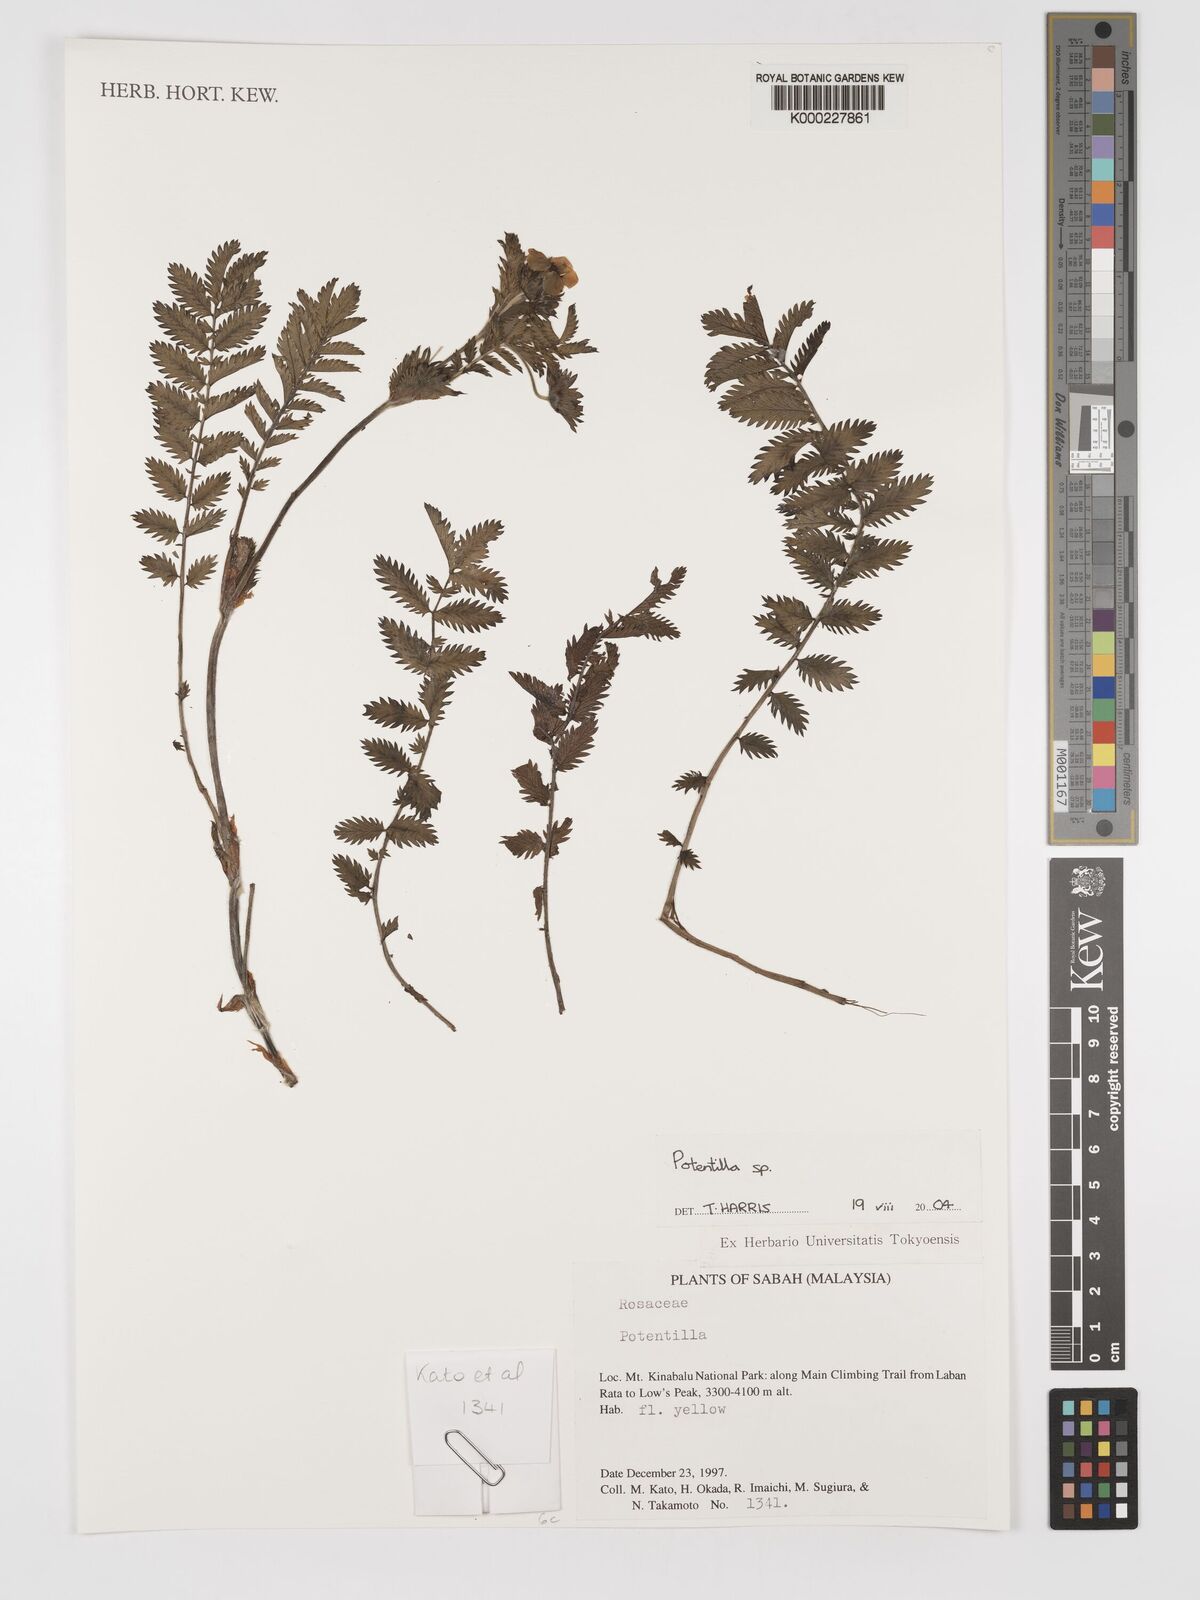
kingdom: Plantae
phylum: Tracheophyta
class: Magnoliopsida
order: Rosales
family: Rosaceae
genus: Potentilla
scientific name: Potentilla
